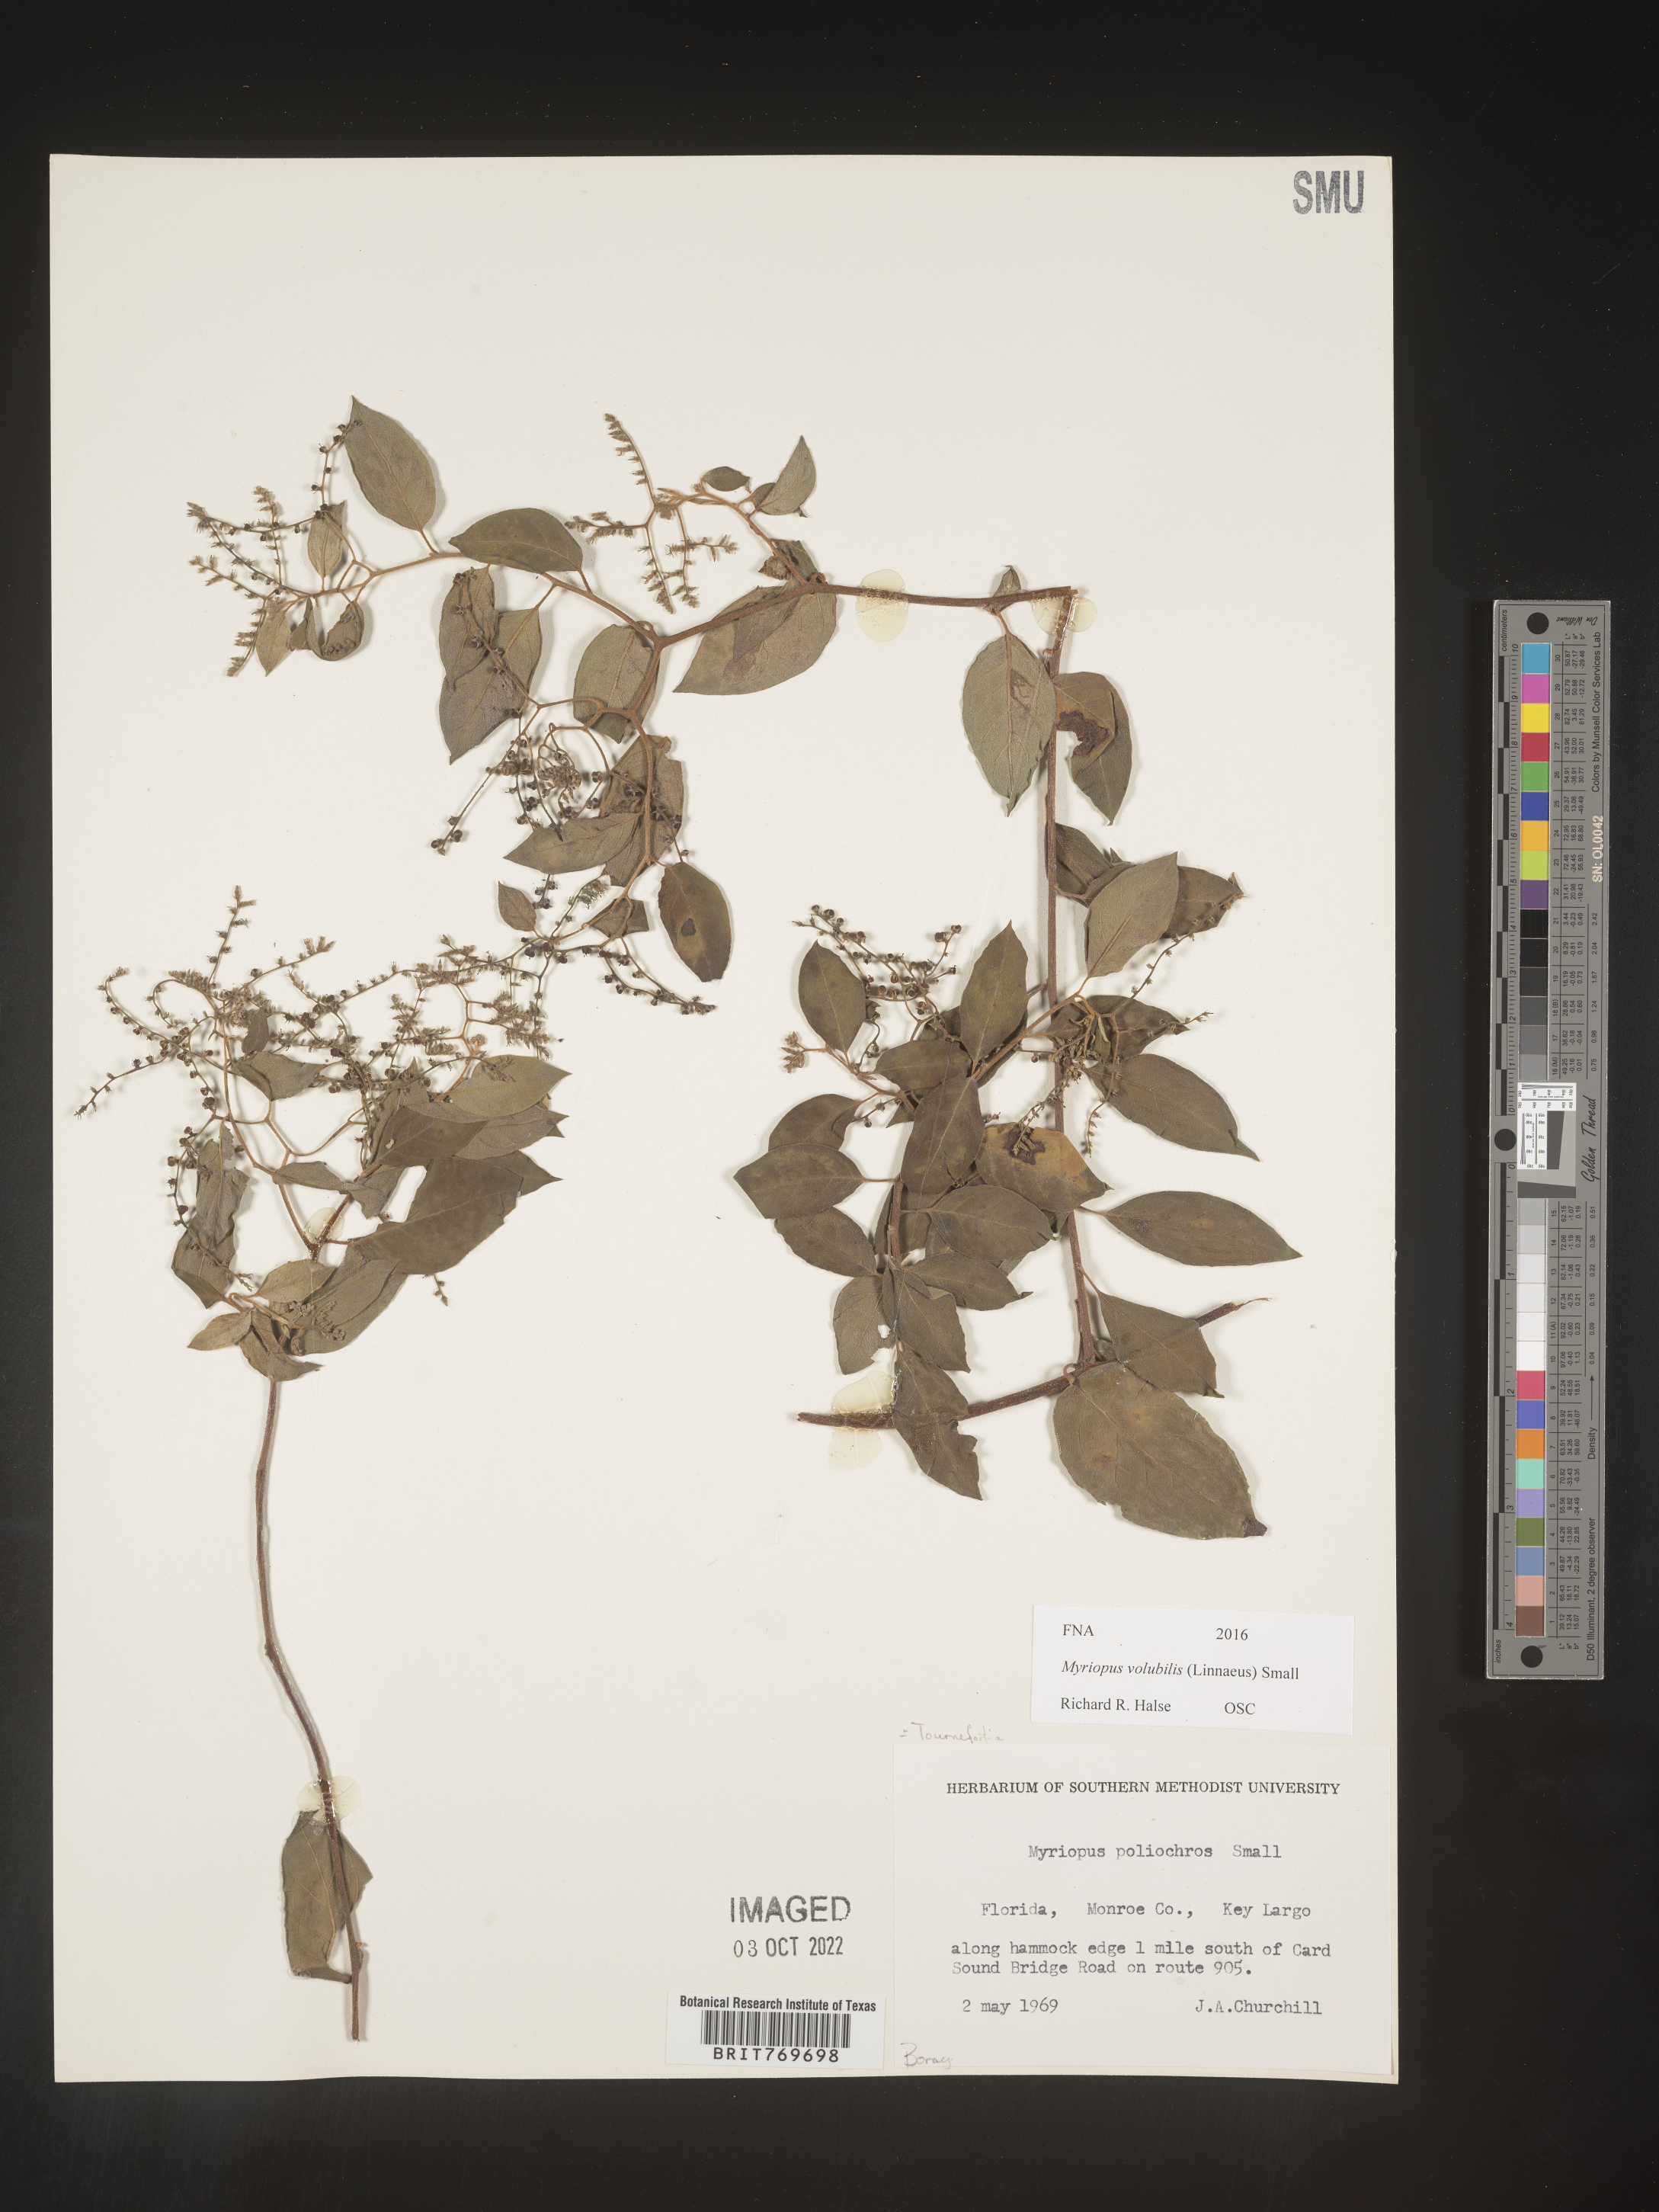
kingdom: Plantae
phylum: Tracheophyta
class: Magnoliopsida
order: Boraginales
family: Heliotropiaceae
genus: Myriopus
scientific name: Myriopus
